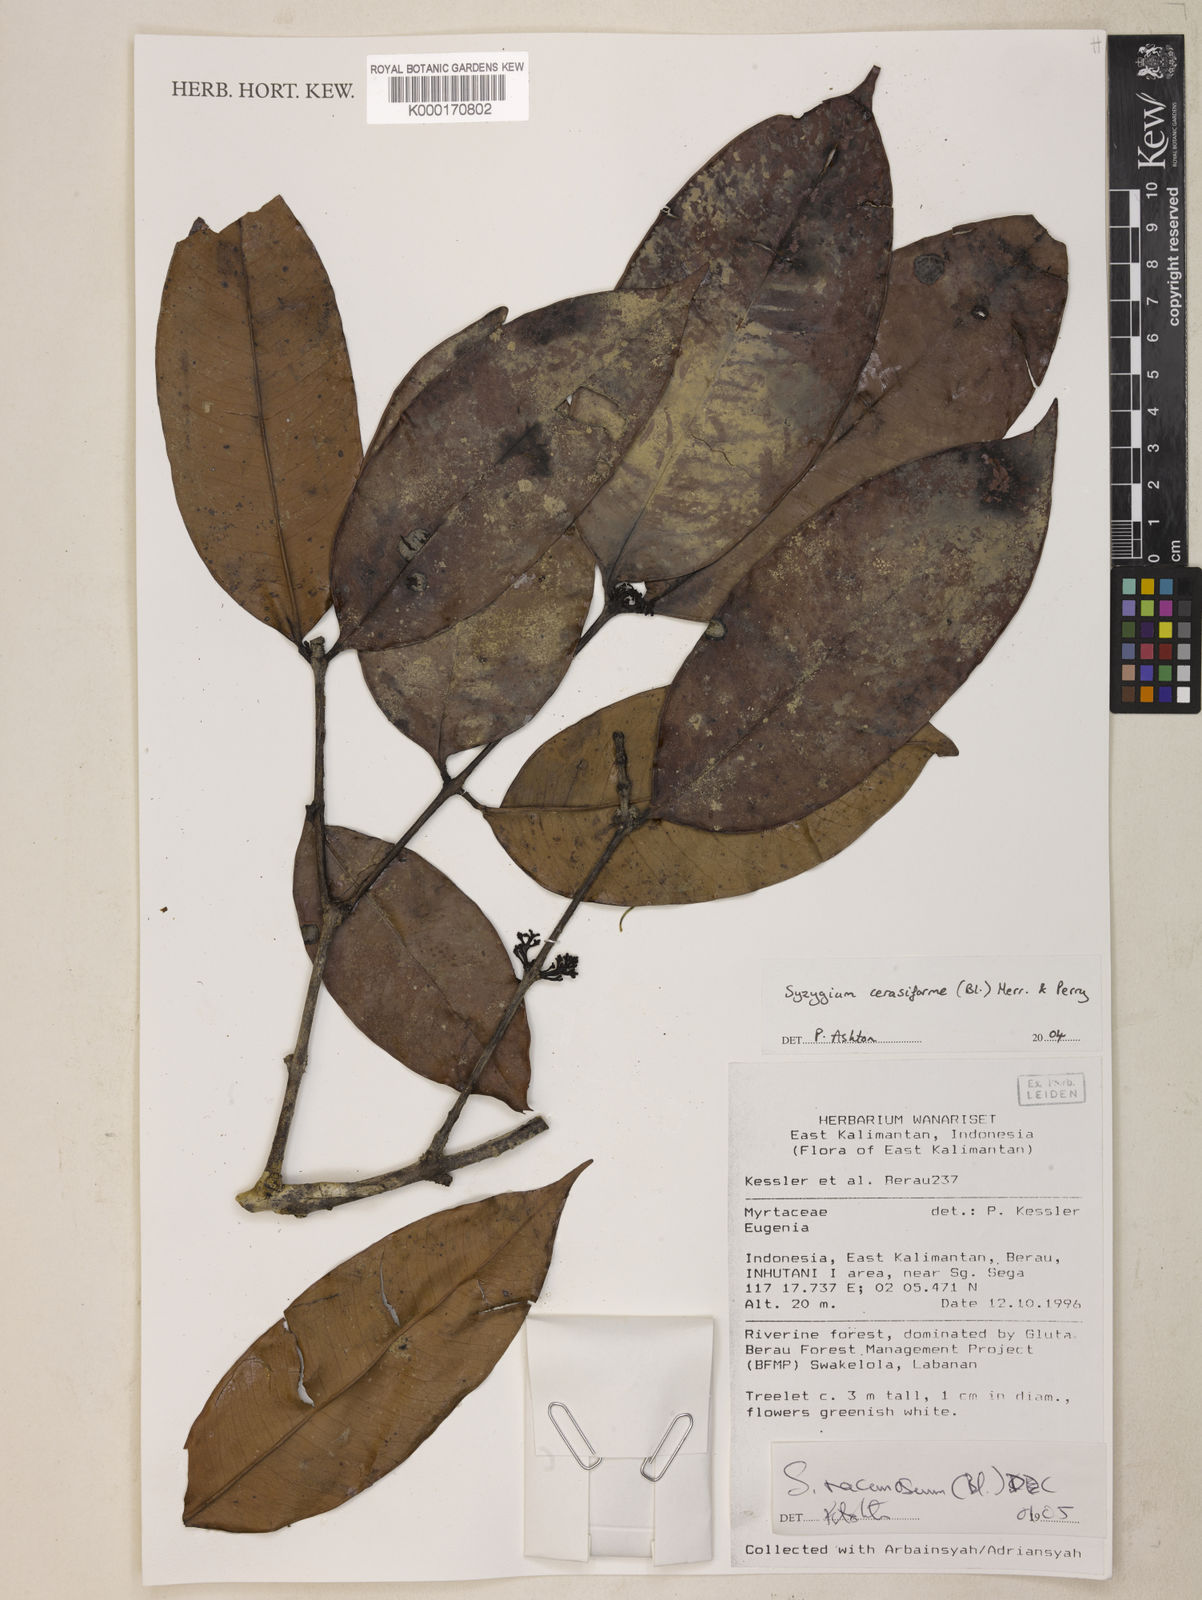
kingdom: Plantae
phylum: Tracheophyta
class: Magnoliopsida
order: Myrtales
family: Myrtaceae
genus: Syzygium
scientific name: Syzygium racemosum
